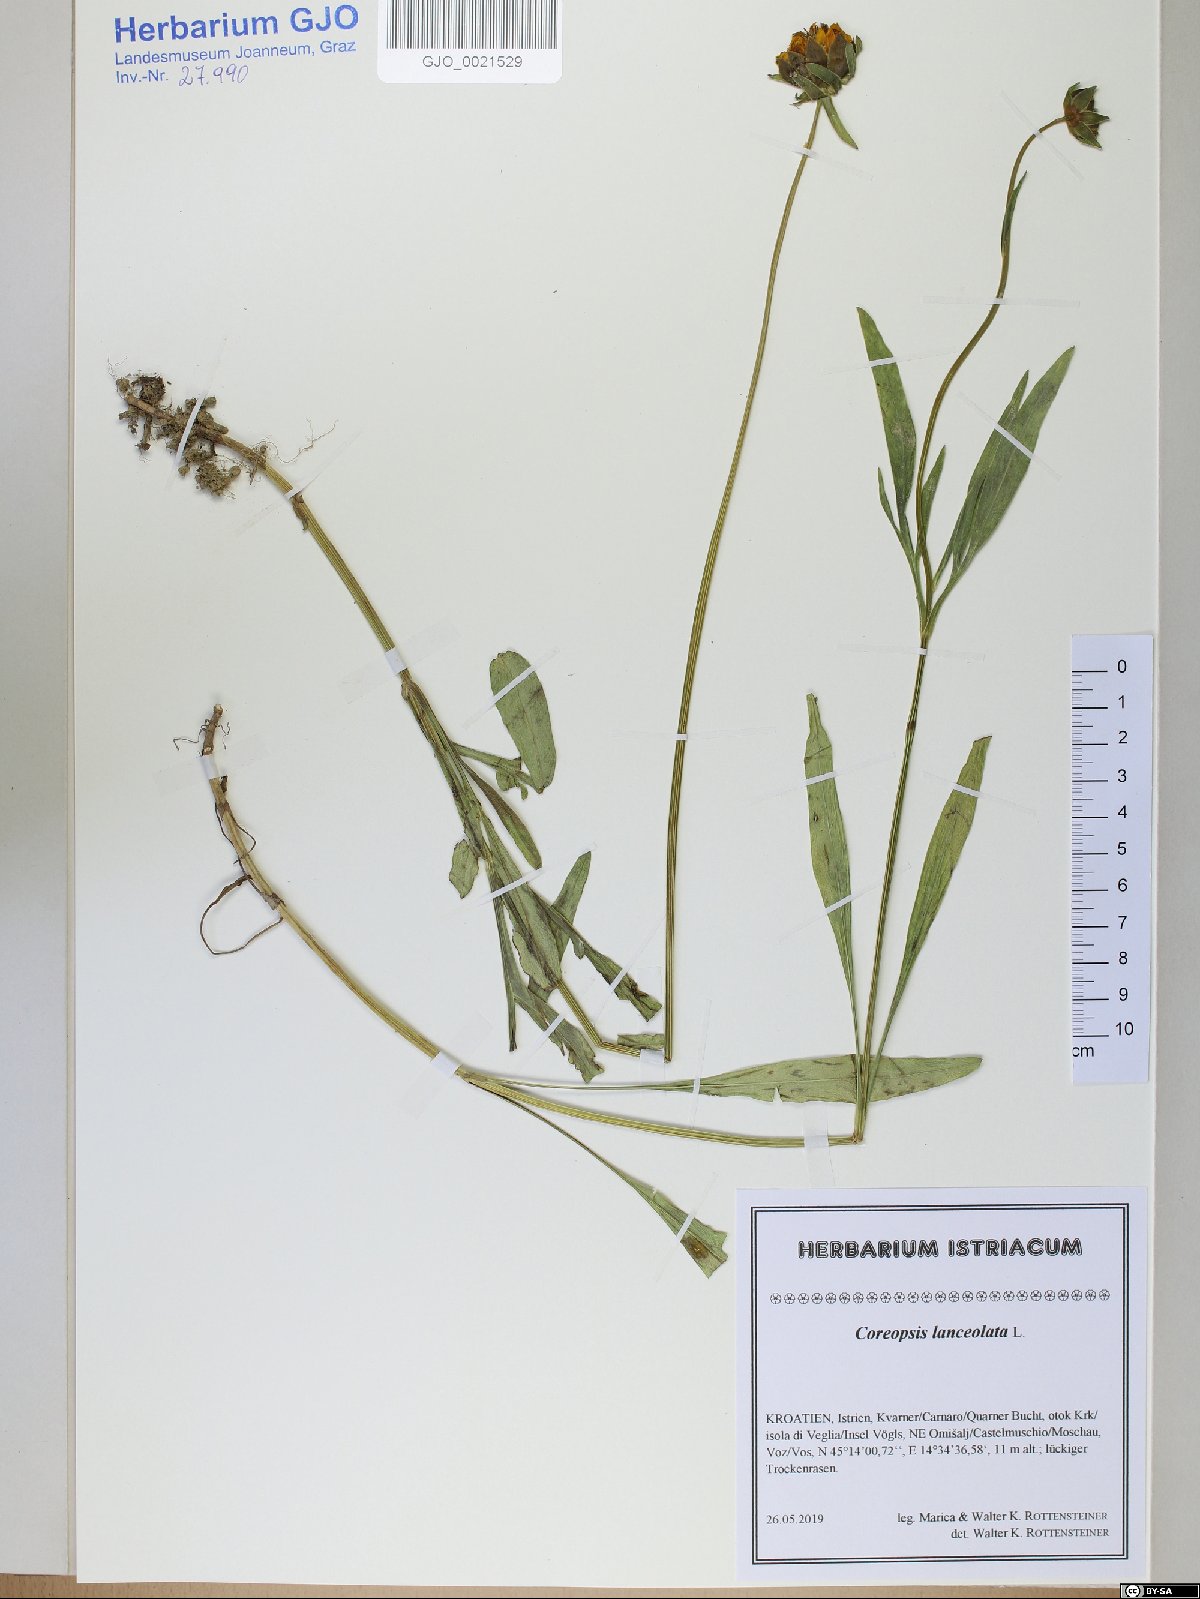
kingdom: Plantae
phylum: Tracheophyta
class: Magnoliopsida
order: Asterales
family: Asteraceae
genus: Coreopsis
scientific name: Coreopsis lanceolata
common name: Garden coreopsis
